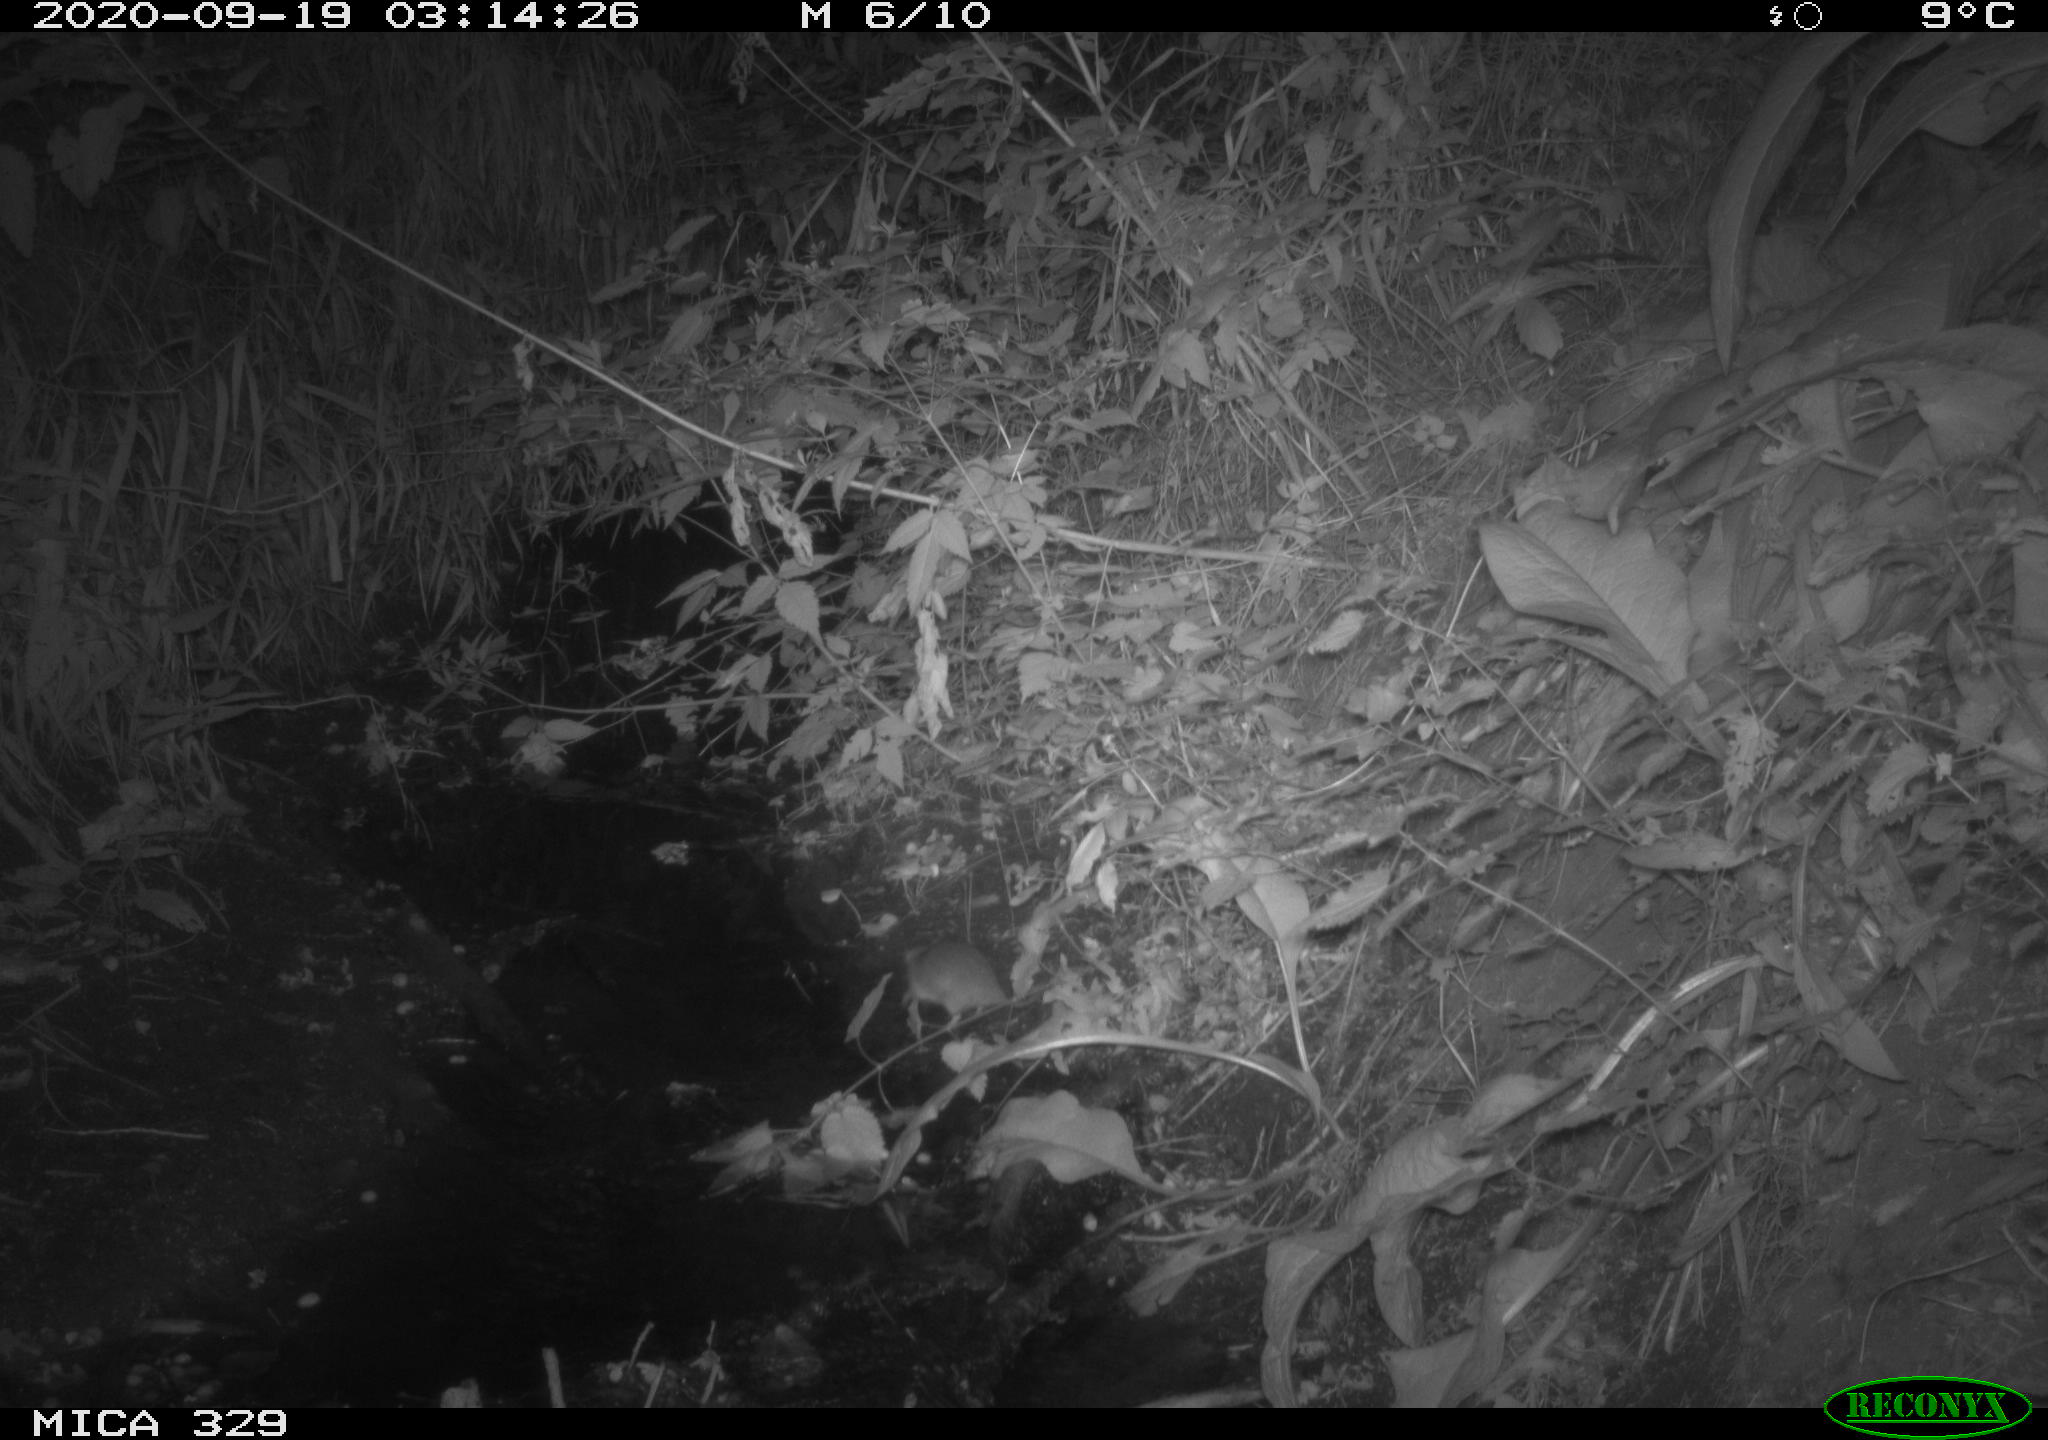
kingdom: Animalia
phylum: Chordata
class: Mammalia
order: Rodentia
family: Muridae
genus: Rattus
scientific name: Rattus norvegicus
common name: Brown rat
